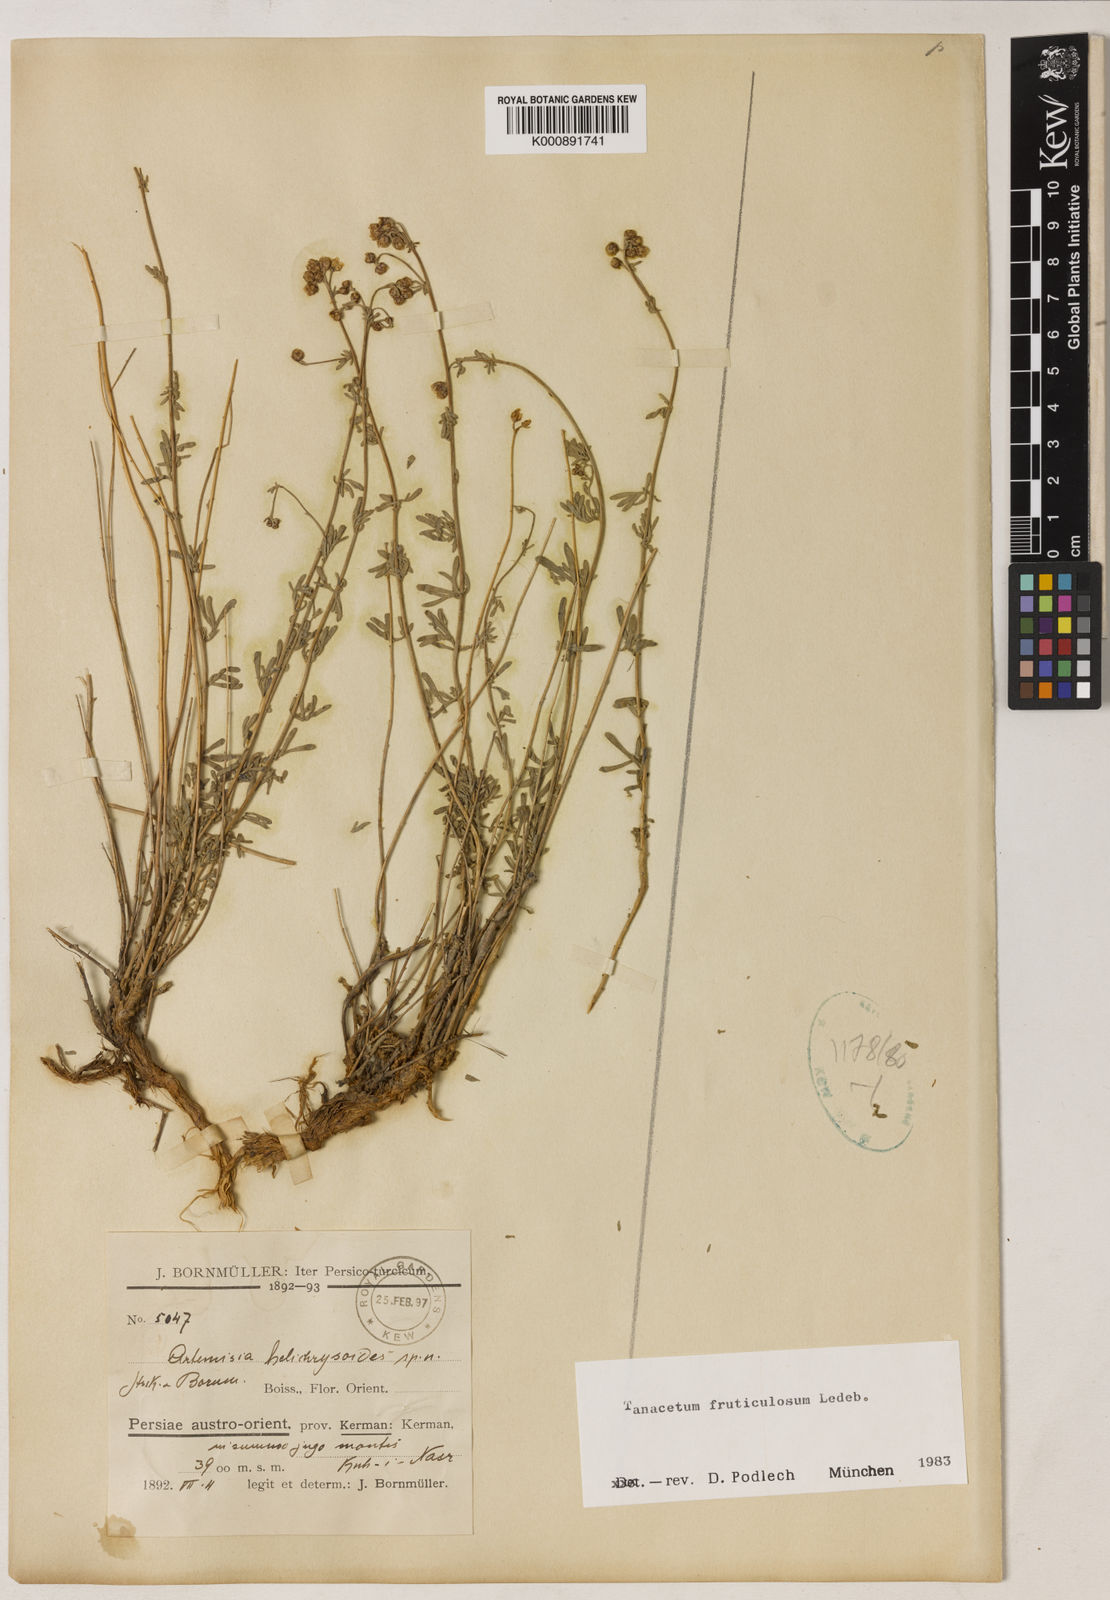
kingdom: Plantae
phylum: Tracheophyta
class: Magnoliopsida
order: Asterales
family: Asteraceae
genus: Ajania
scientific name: Ajania fruticulosa
